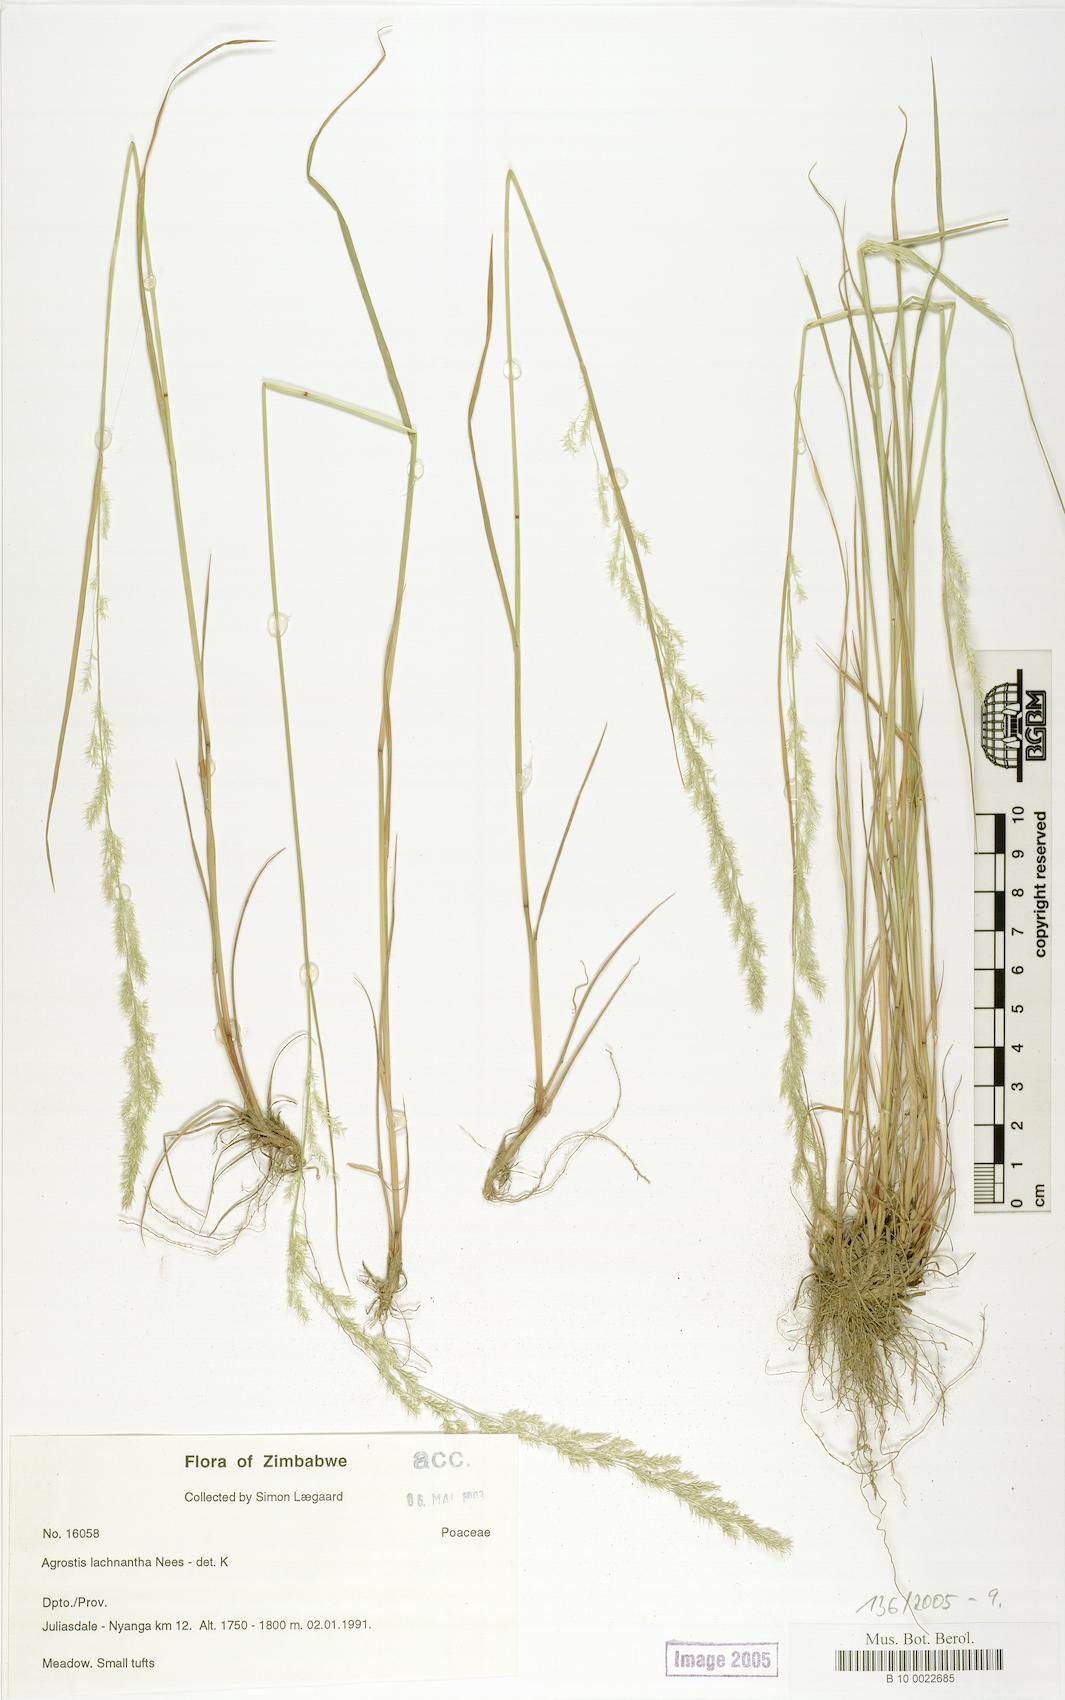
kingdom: Plantae
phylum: Tracheophyta
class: Liliopsida
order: Poales
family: Poaceae
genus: Lachnagrostis
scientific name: Lachnagrostis lachnantha
